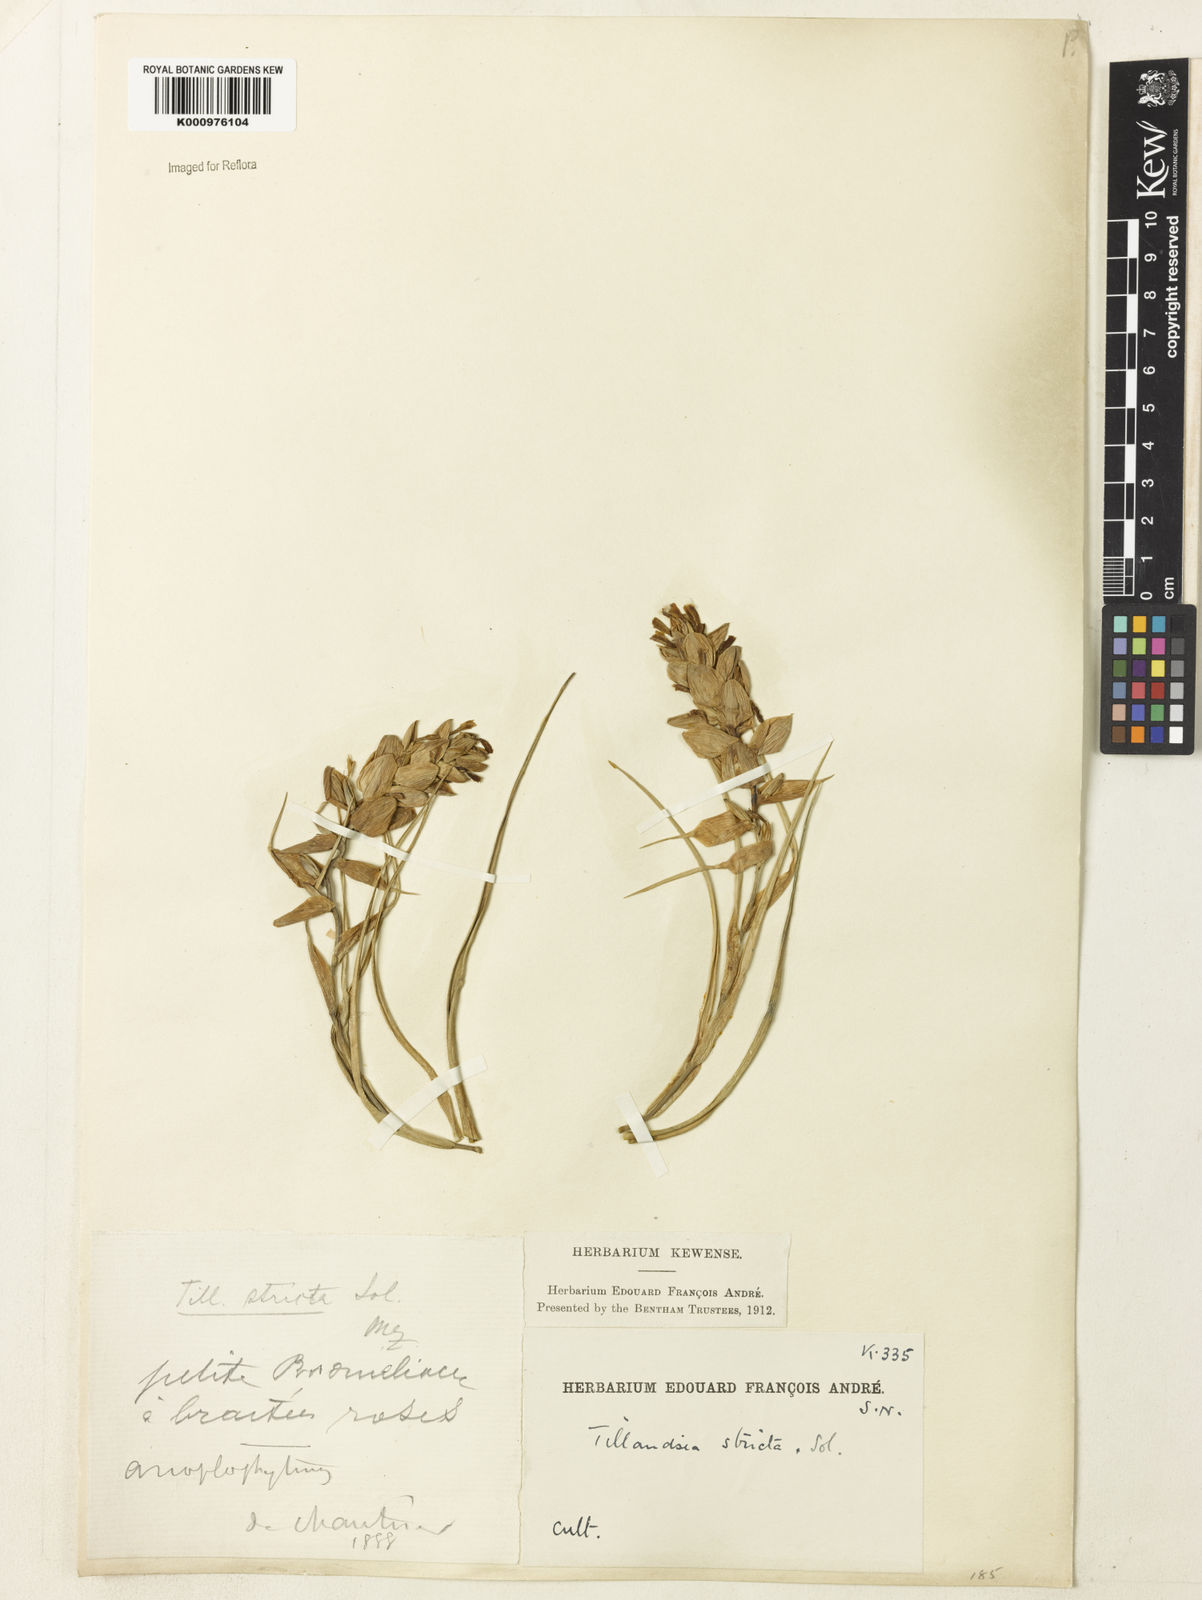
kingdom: Plantae
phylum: Tracheophyta
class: Liliopsida
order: Poales
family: Bromeliaceae
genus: Tillandsia
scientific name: Tillandsia
